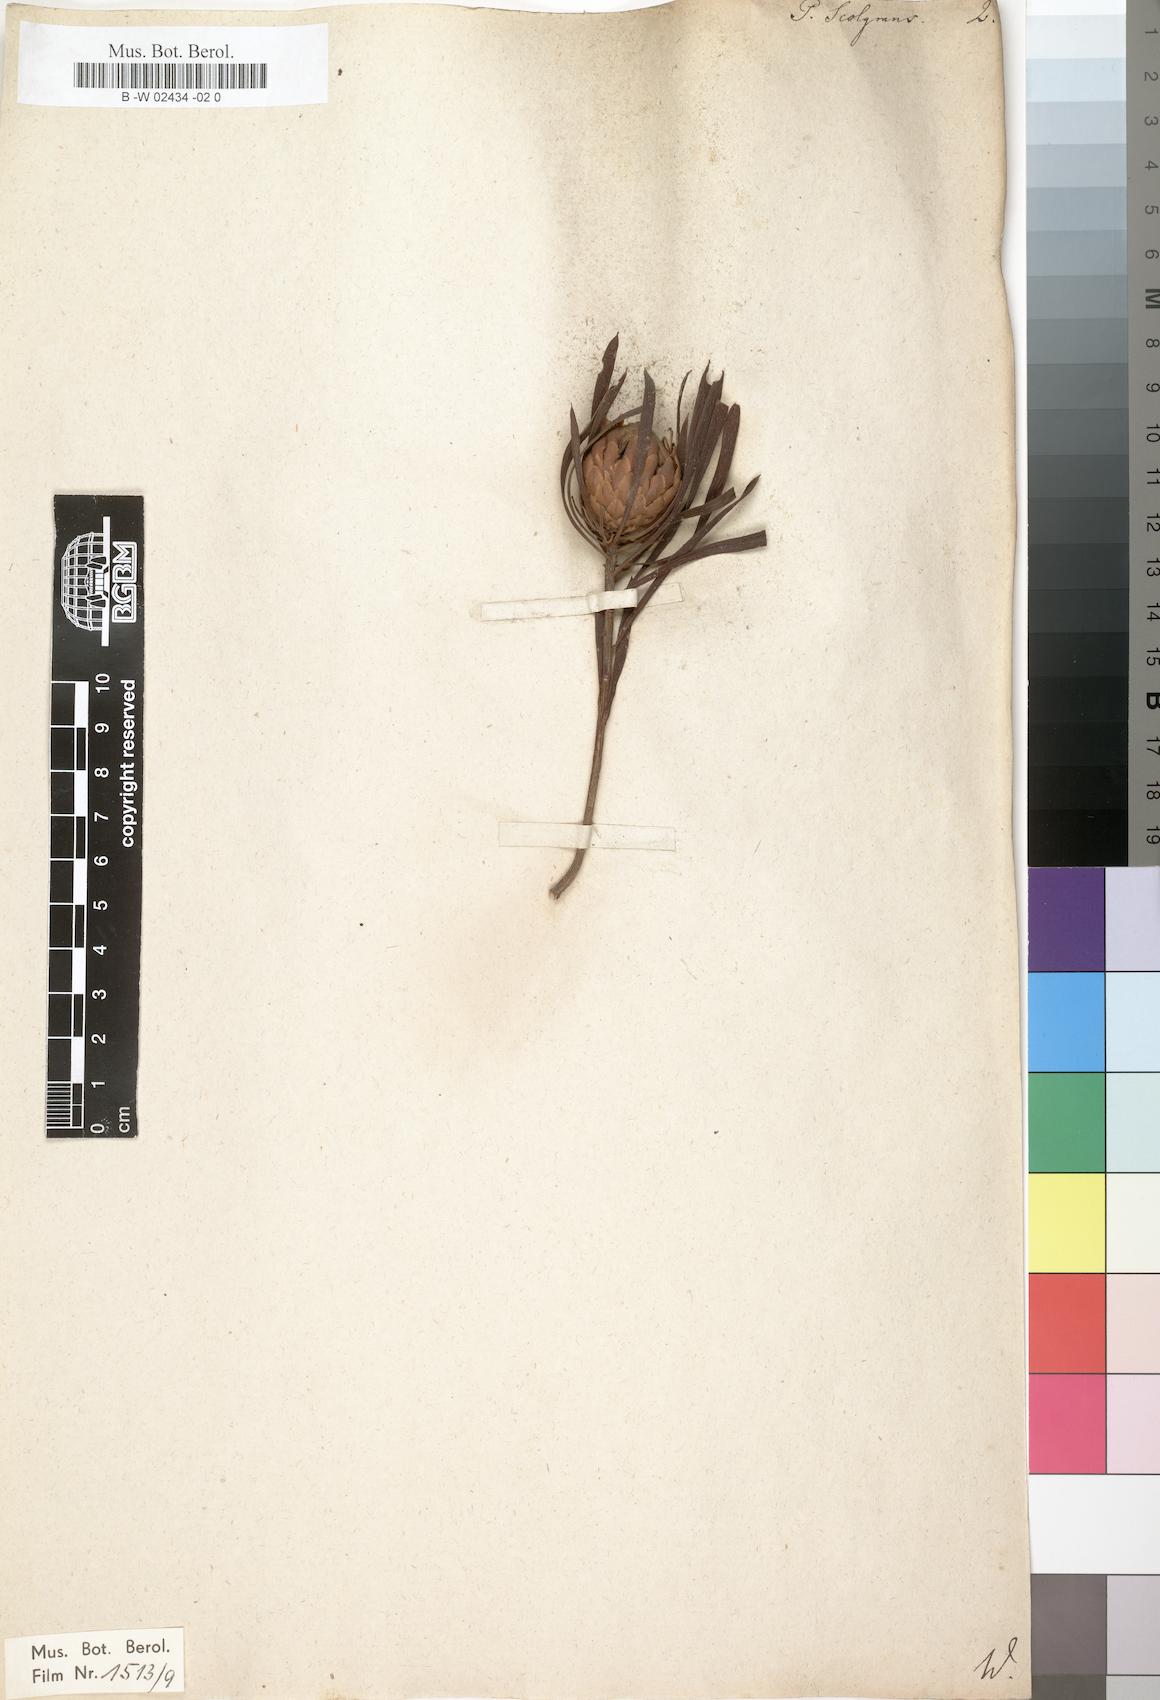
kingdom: Plantae
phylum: Tracheophyta
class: Magnoliopsida
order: Proteales
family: Proteaceae
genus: Protea
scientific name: Protea scolymocephala
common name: Thistle sugarbush
